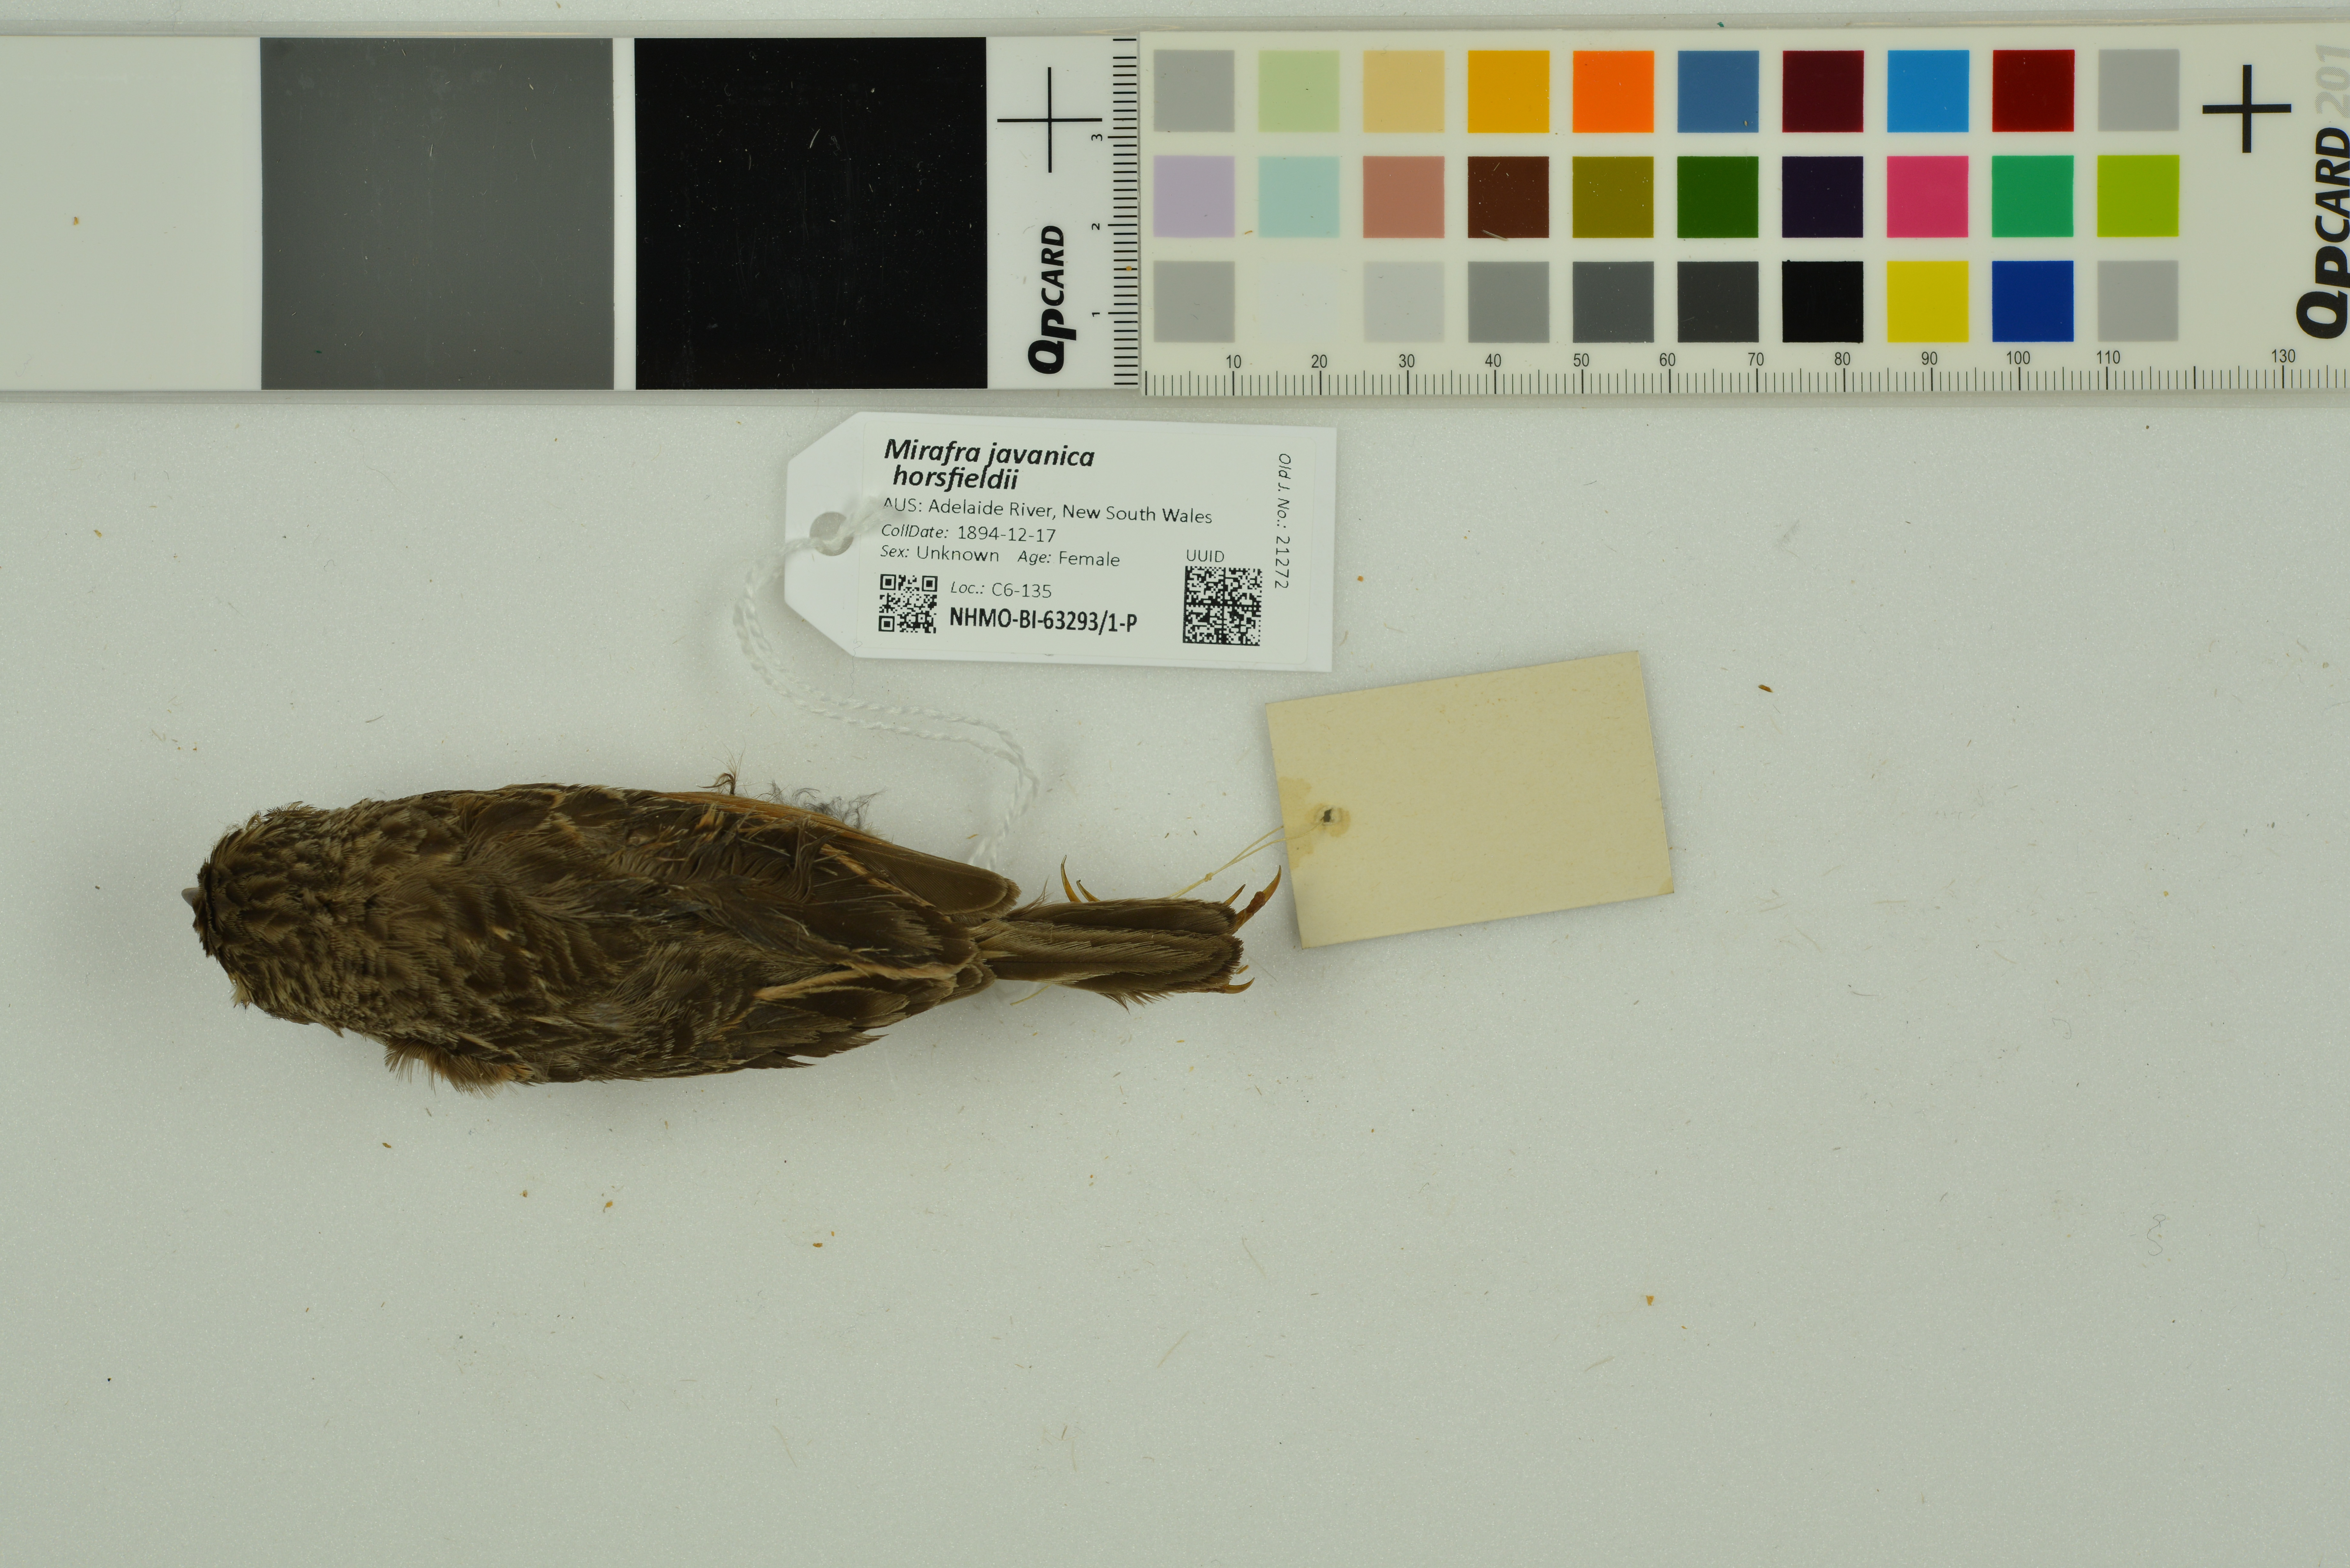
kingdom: Animalia
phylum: Chordata
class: Aves
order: Passeriformes
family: Alaudidae
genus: Mirafra
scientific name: Mirafra javanica
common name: Horsfield's bush lark
